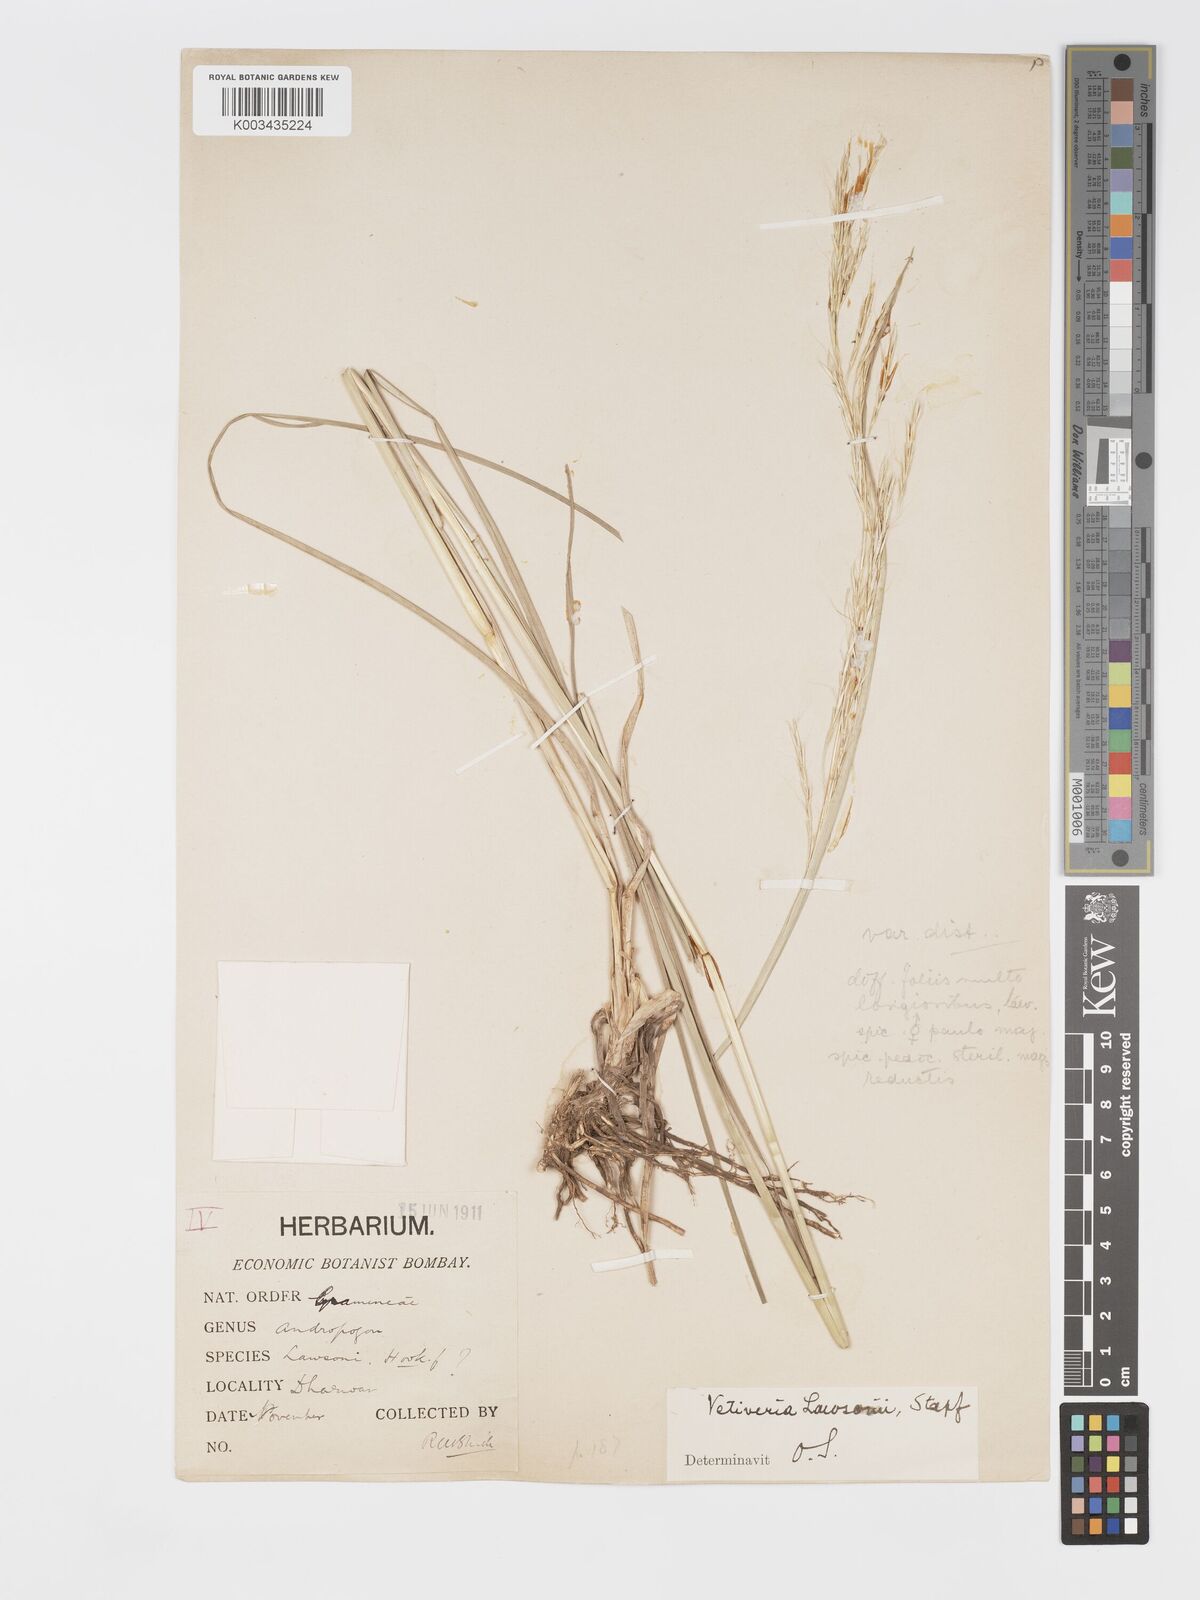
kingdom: Plantae
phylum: Tracheophyta
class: Liliopsida
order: Poales
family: Poaceae
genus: Chrysopogon
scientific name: Chrysopogon lawsonii
